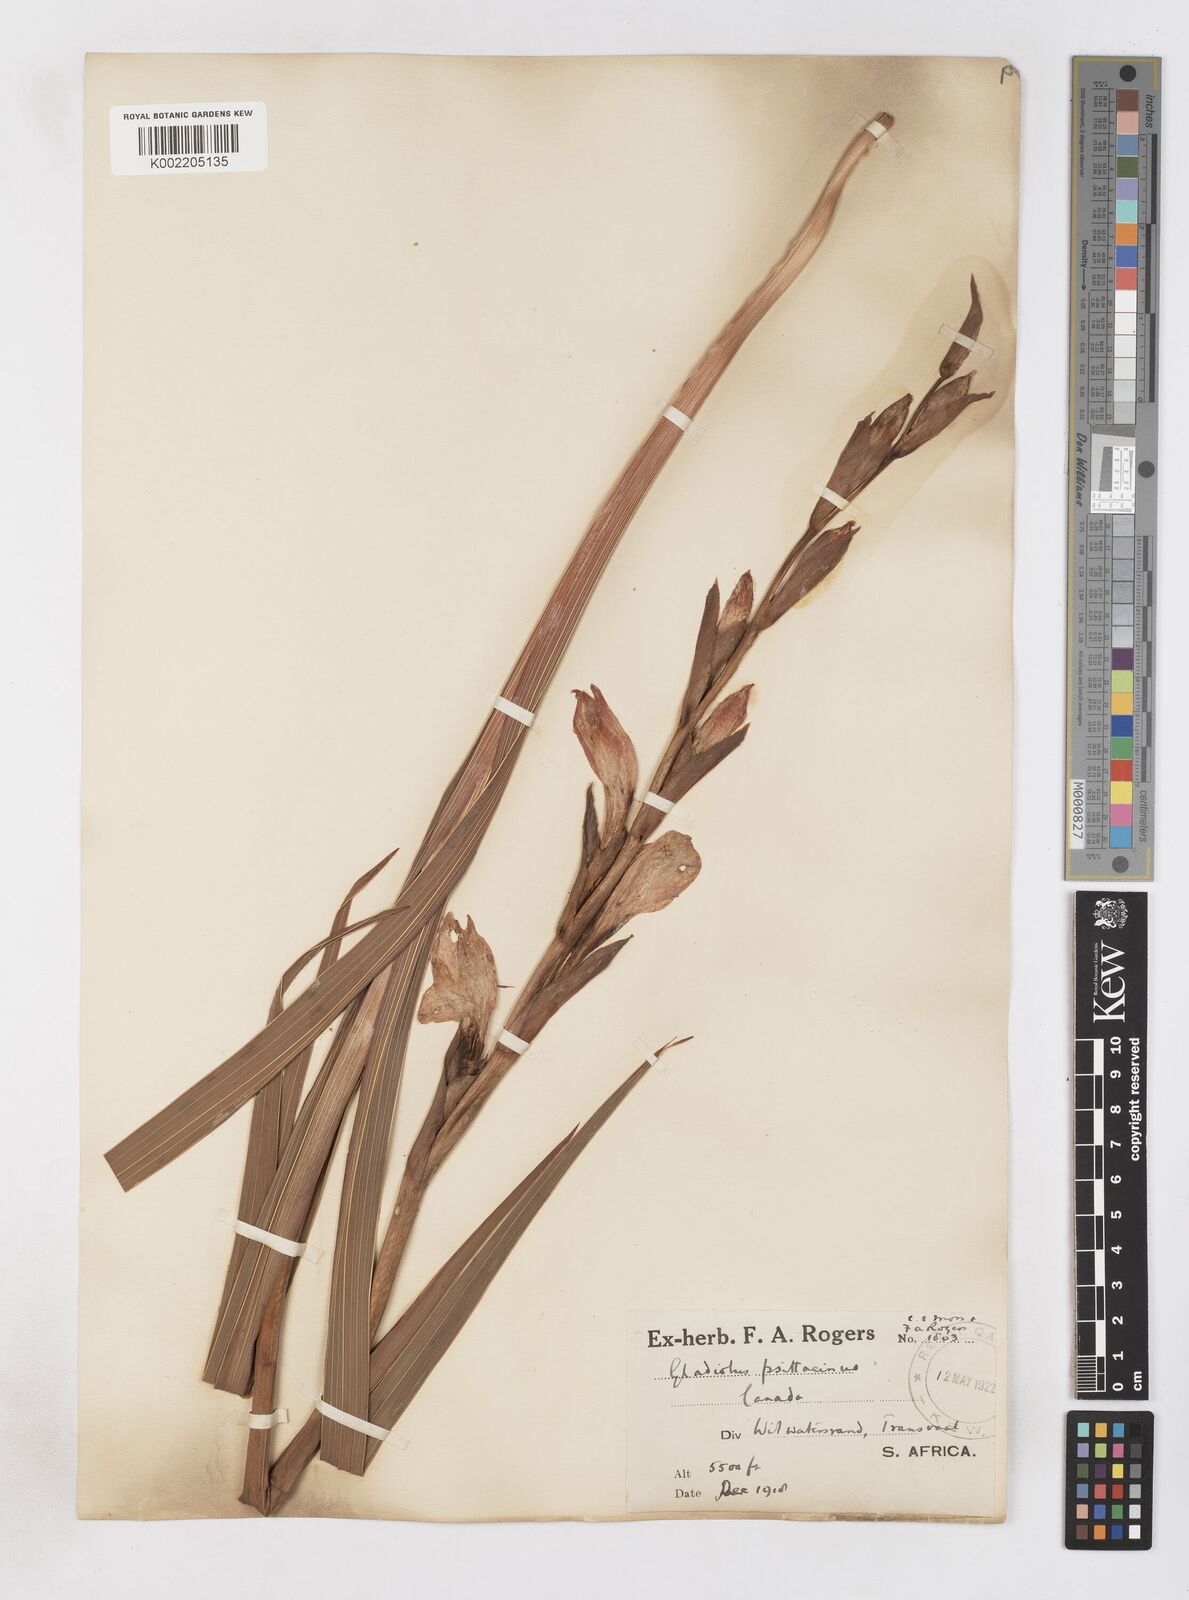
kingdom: Plantae
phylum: Tracheophyta
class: Liliopsida
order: Asparagales
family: Iridaceae
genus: Gladiolus
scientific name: Gladiolus dalenii
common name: Cornflag
